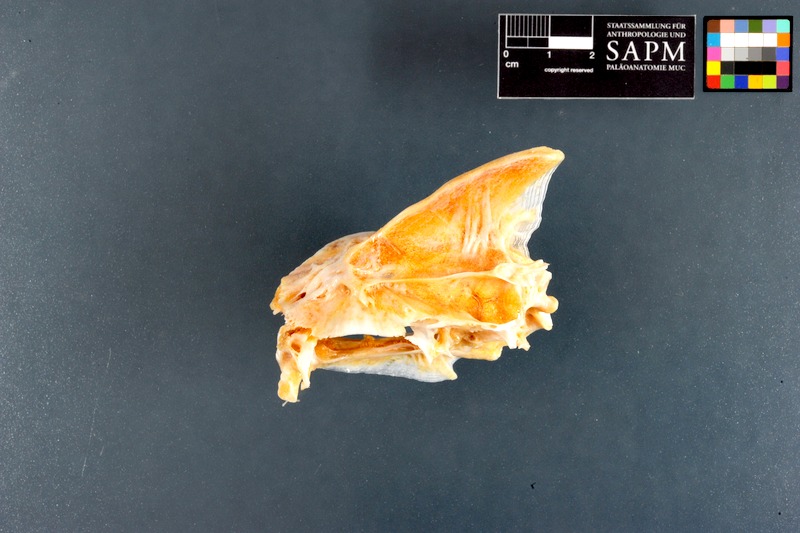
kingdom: Animalia
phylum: Chordata
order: Perciformes
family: Sparidae
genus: Acanthopagrus
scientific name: Acanthopagrus
